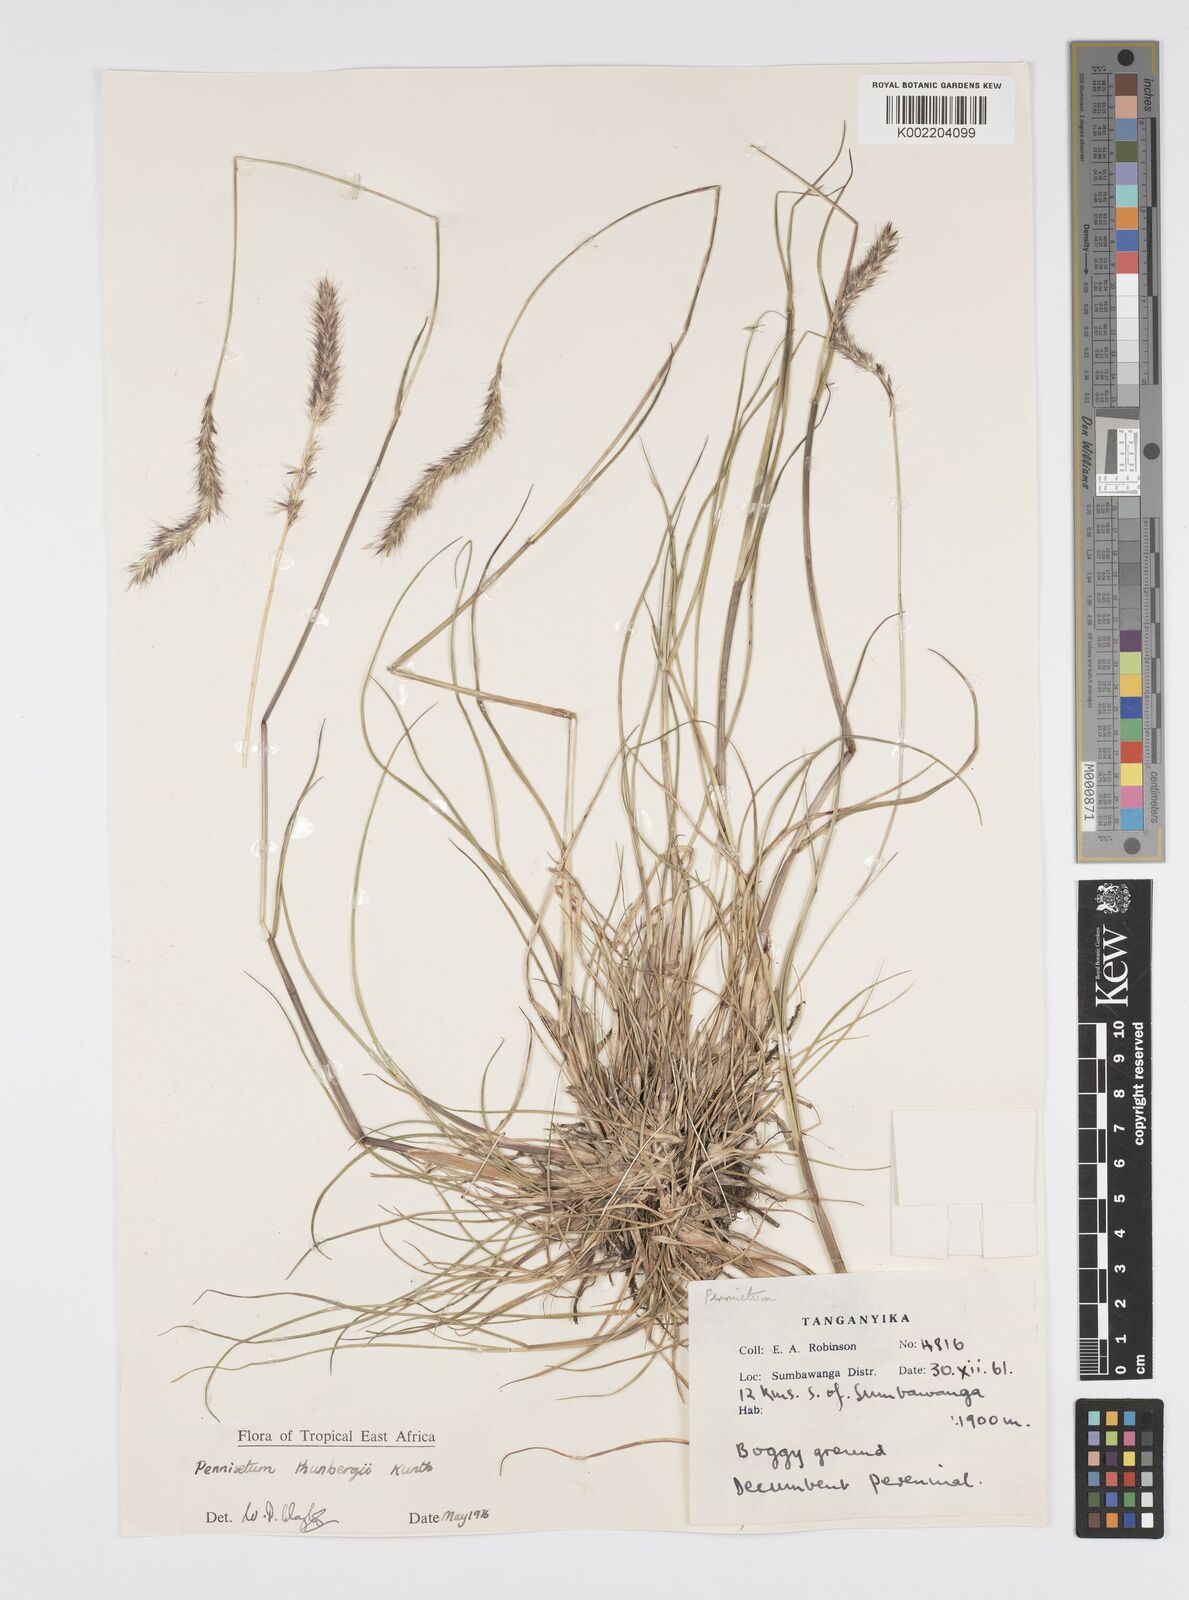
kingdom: Plantae
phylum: Tracheophyta
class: Liliopsida
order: Poales
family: Poaceae
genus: Cenchrus
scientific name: Cenchrus geniculatus
